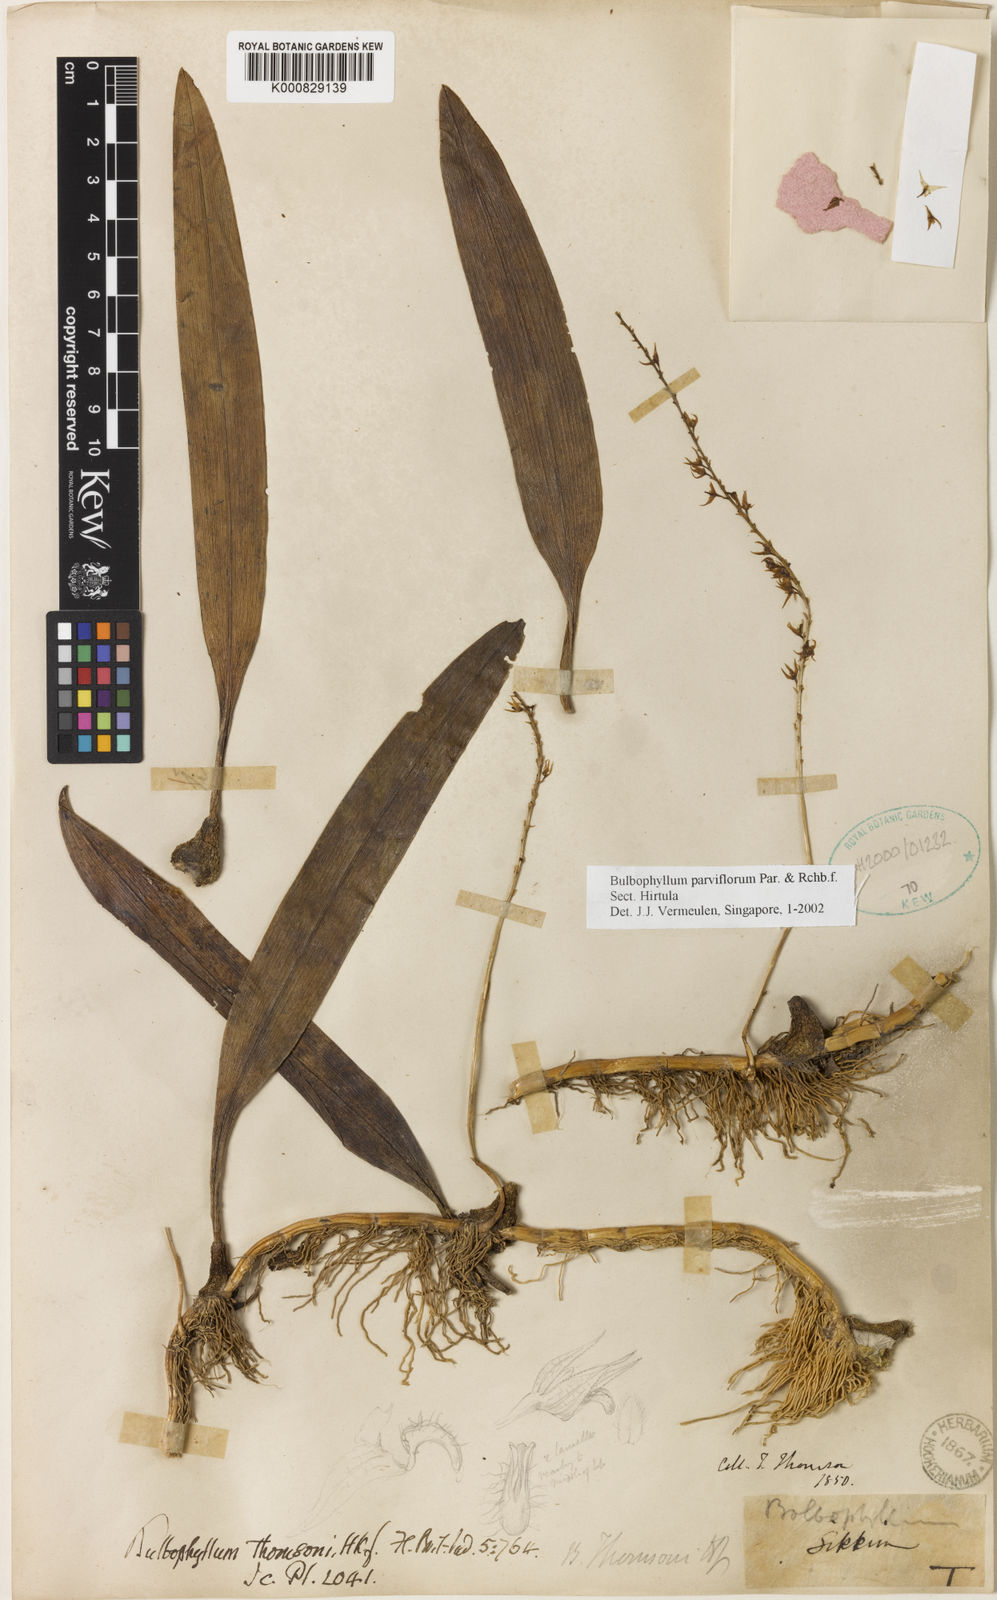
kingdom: Plantae
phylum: Tracheophyta
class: Liliopsida
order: Asparagales
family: Orchidaceae
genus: Bulbophyllum
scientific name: Bulbophyllum parviflorum
